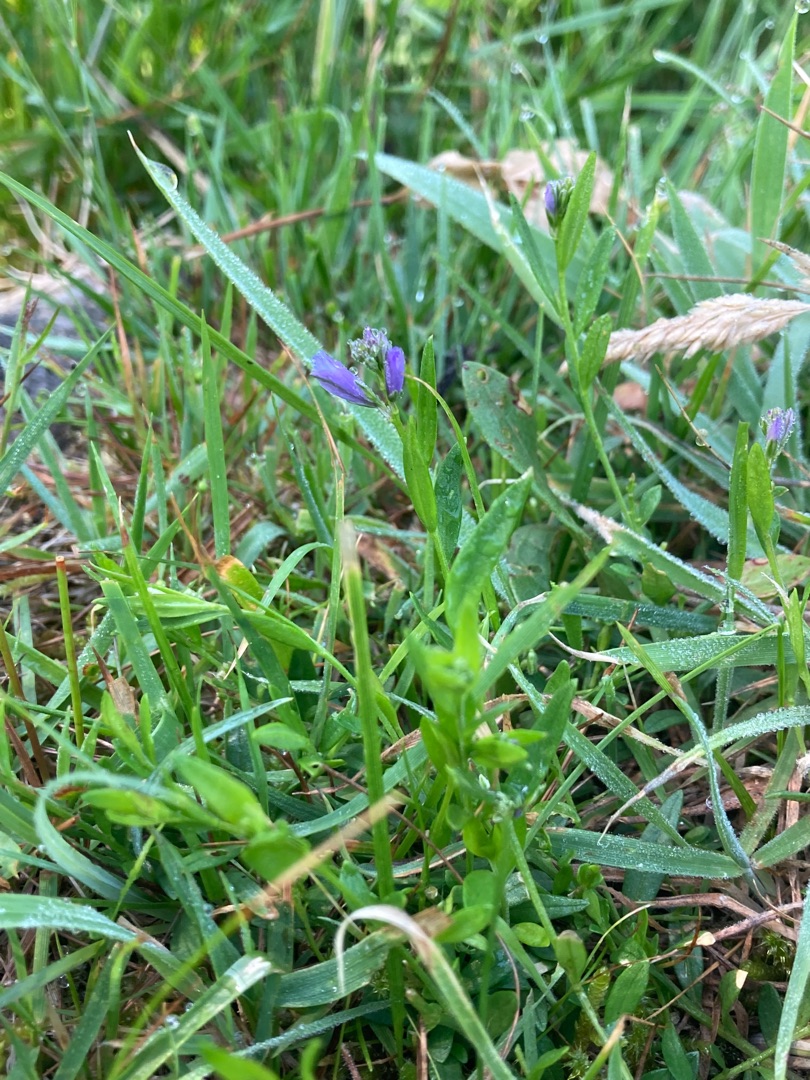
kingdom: Plantae
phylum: Tracheophyta
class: Magnoliopsida
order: Fabales
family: Polygalaceae
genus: Polygala
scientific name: Polygala vulgaris
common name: Almindelig mælkeurt
